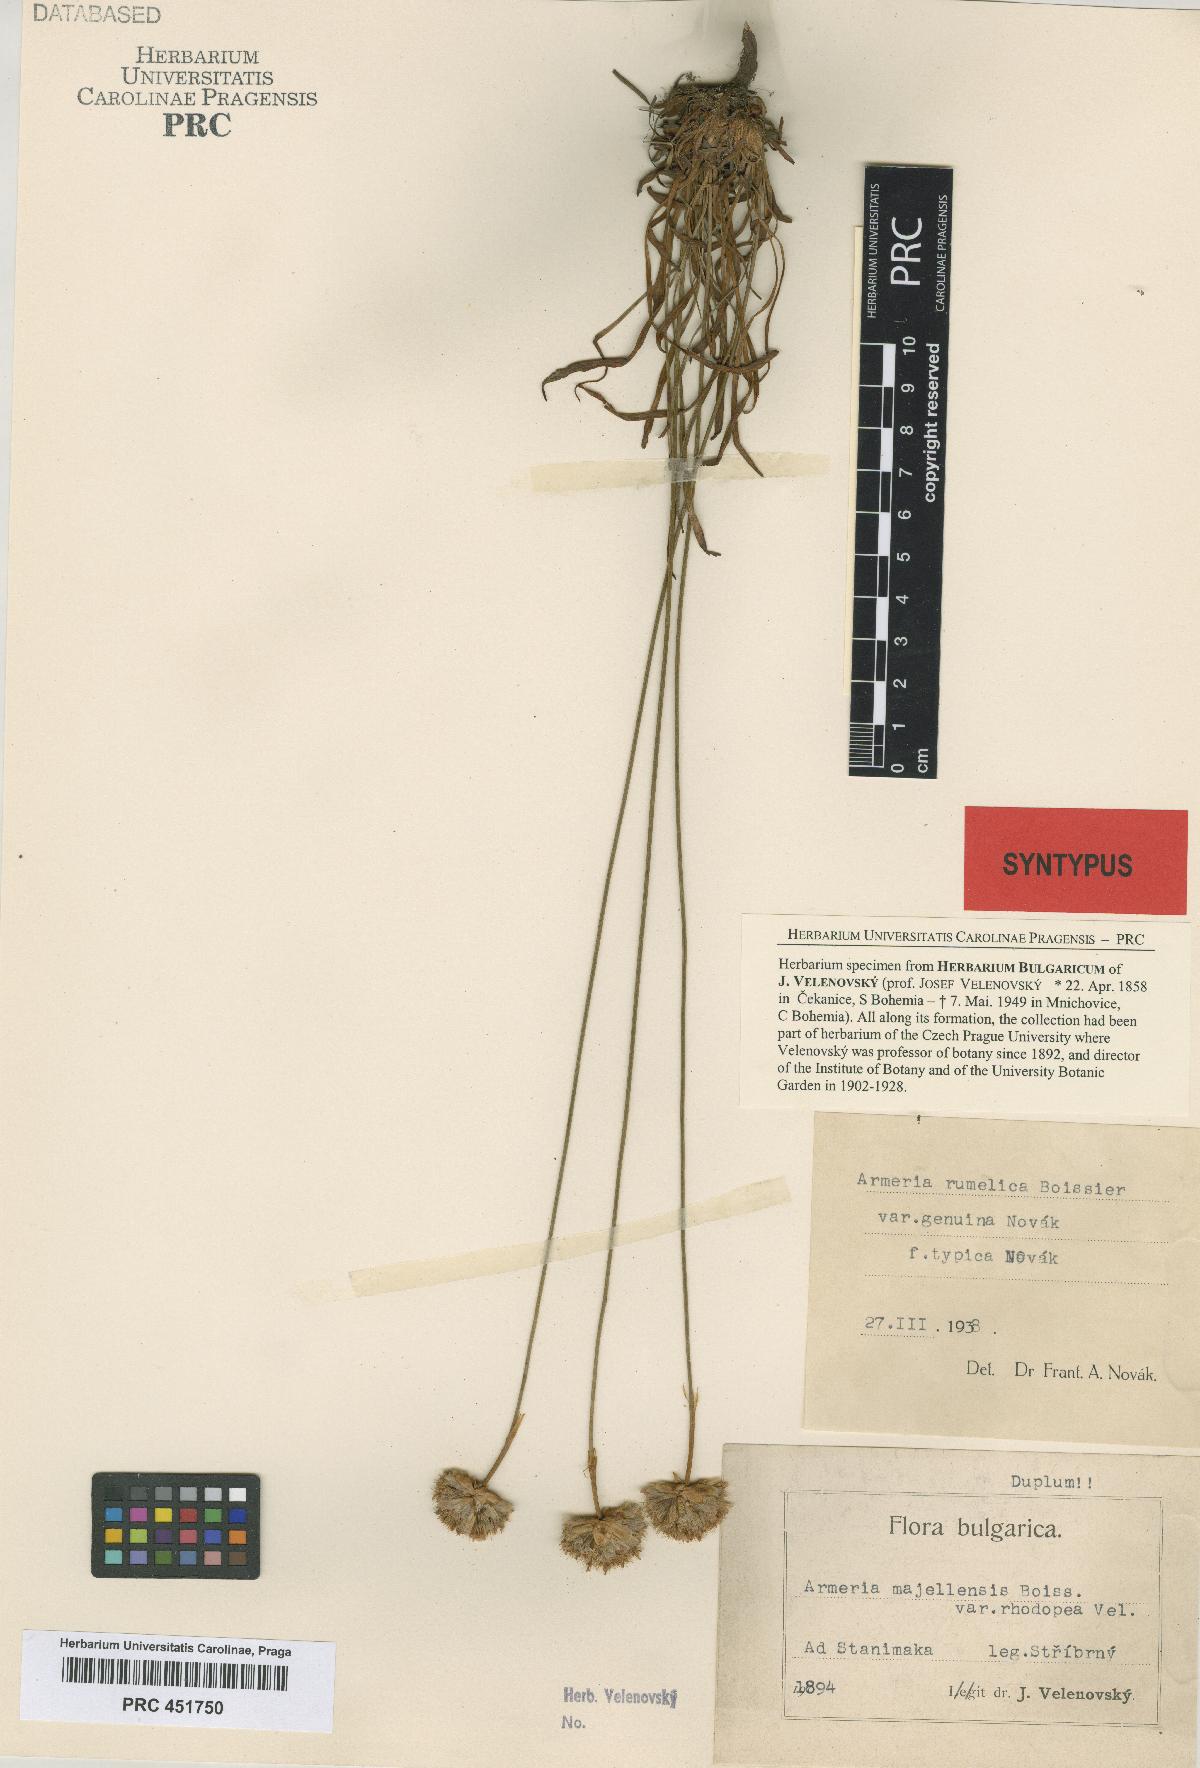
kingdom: Plantae
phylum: Tracheophyta
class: Magnoliopsida
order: Caryophyllales
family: Plumbaginaceae
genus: Armeria
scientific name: Armeria rumelica
